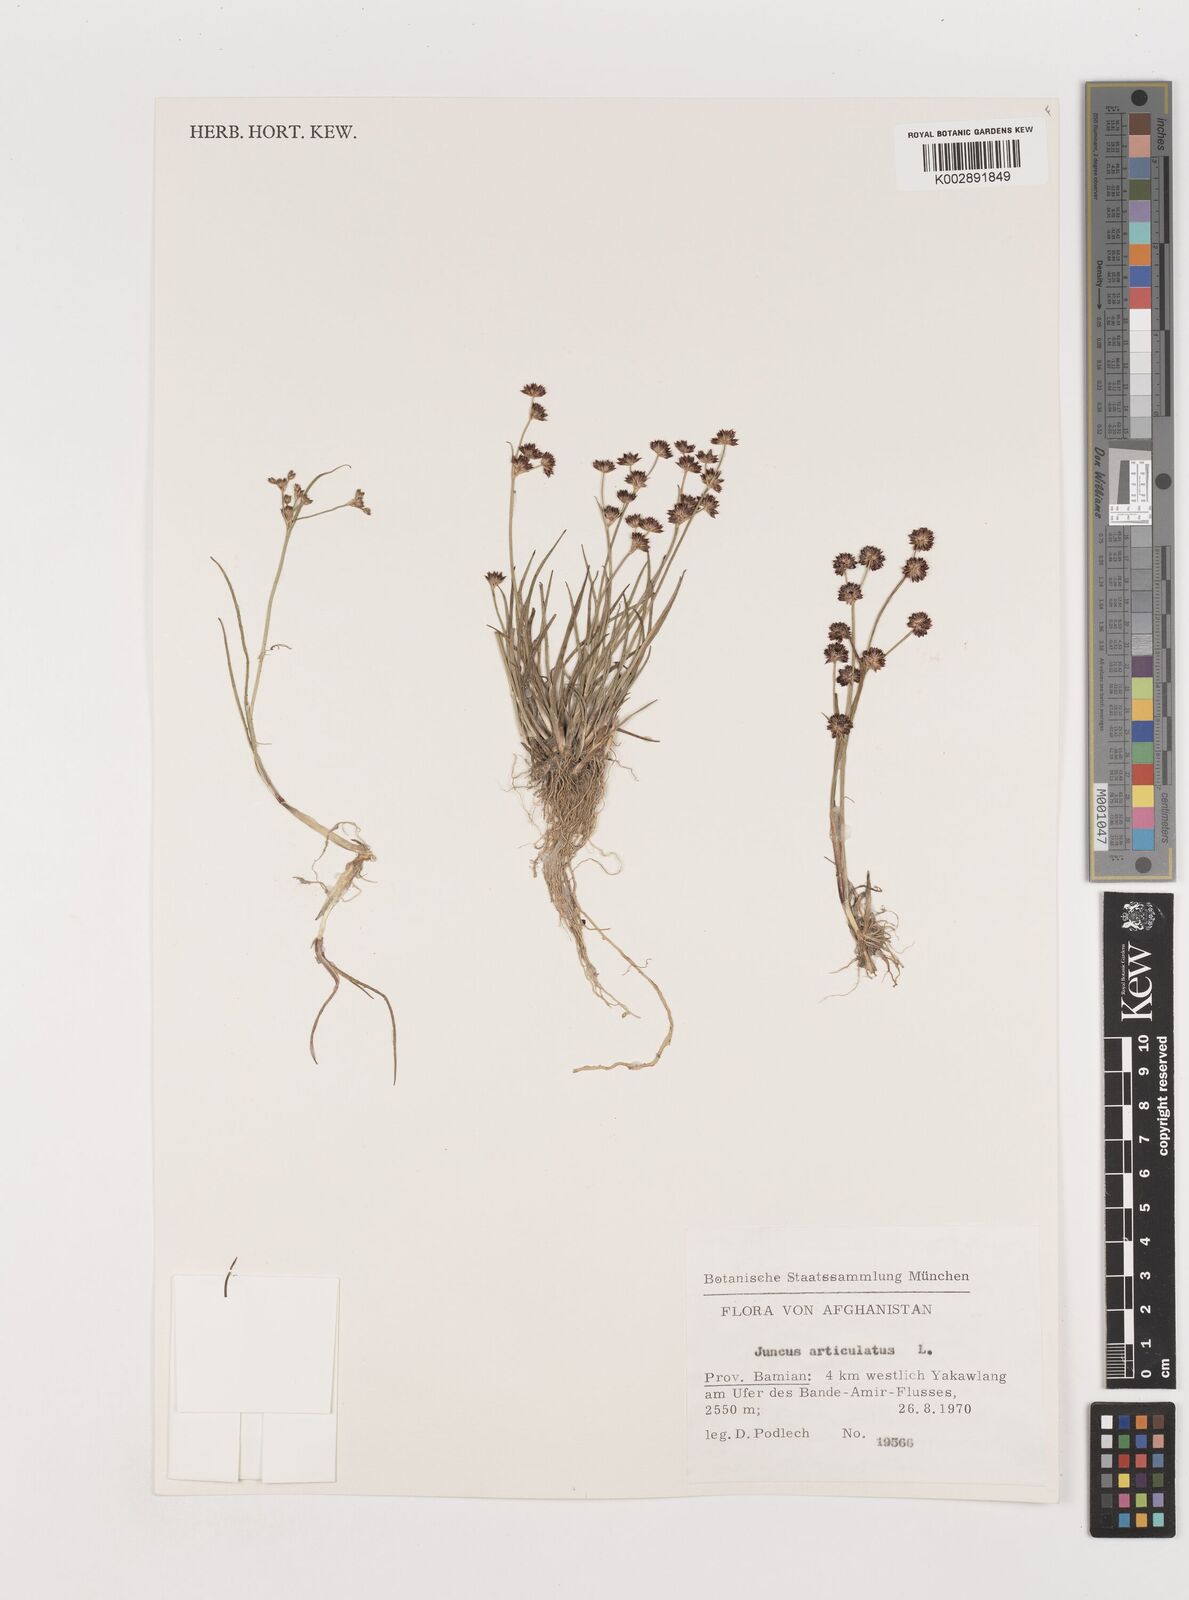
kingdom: Plantae
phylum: Tracheophyta
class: Liliopsida
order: Poales
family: Juncaceae
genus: Juncus
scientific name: Juncus articulatus
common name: Jointed rush
